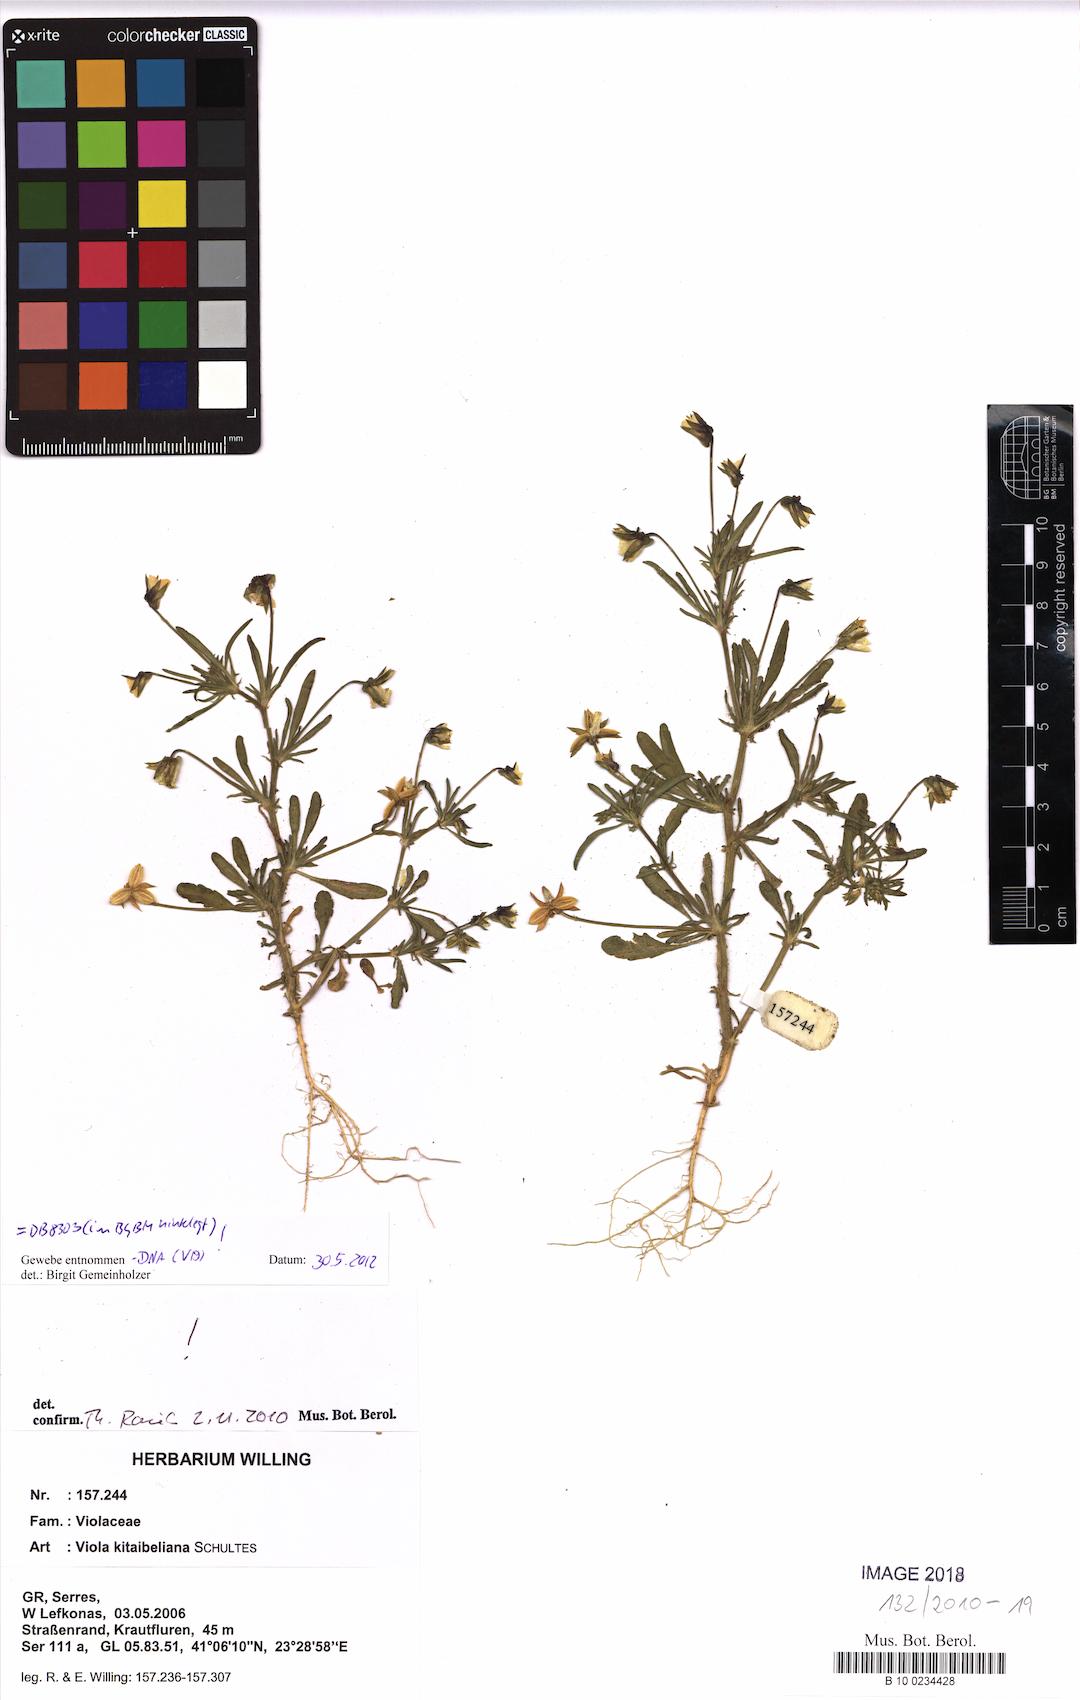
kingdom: Plantae
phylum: Tracheophyta
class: Magnoliopsida
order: Malpighiales
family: Violaceae
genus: Viola
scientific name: Viola kitaibeliana
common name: Dwarf pansy
